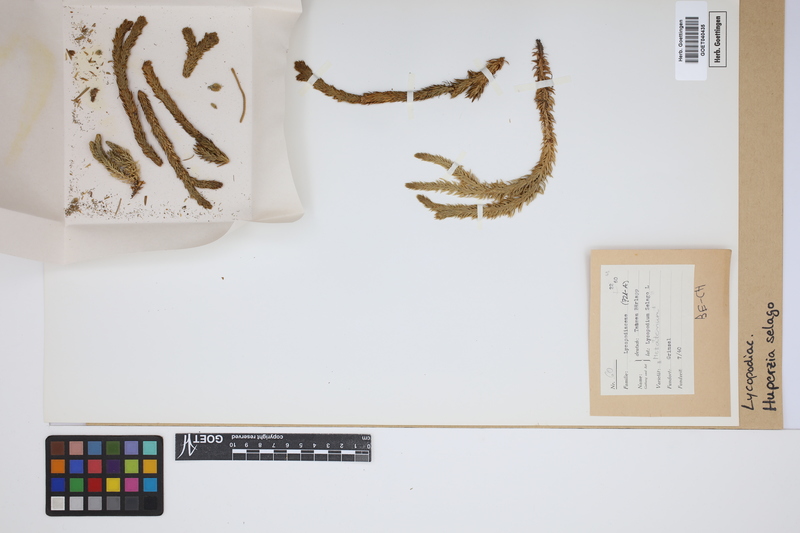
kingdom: Plantae
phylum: Tracheophyta
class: Lycopodiopsida
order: Lycopodiales
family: Lycopodiaceae
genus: Huperzia
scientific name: Huperzia selago
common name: Northern firmoss
